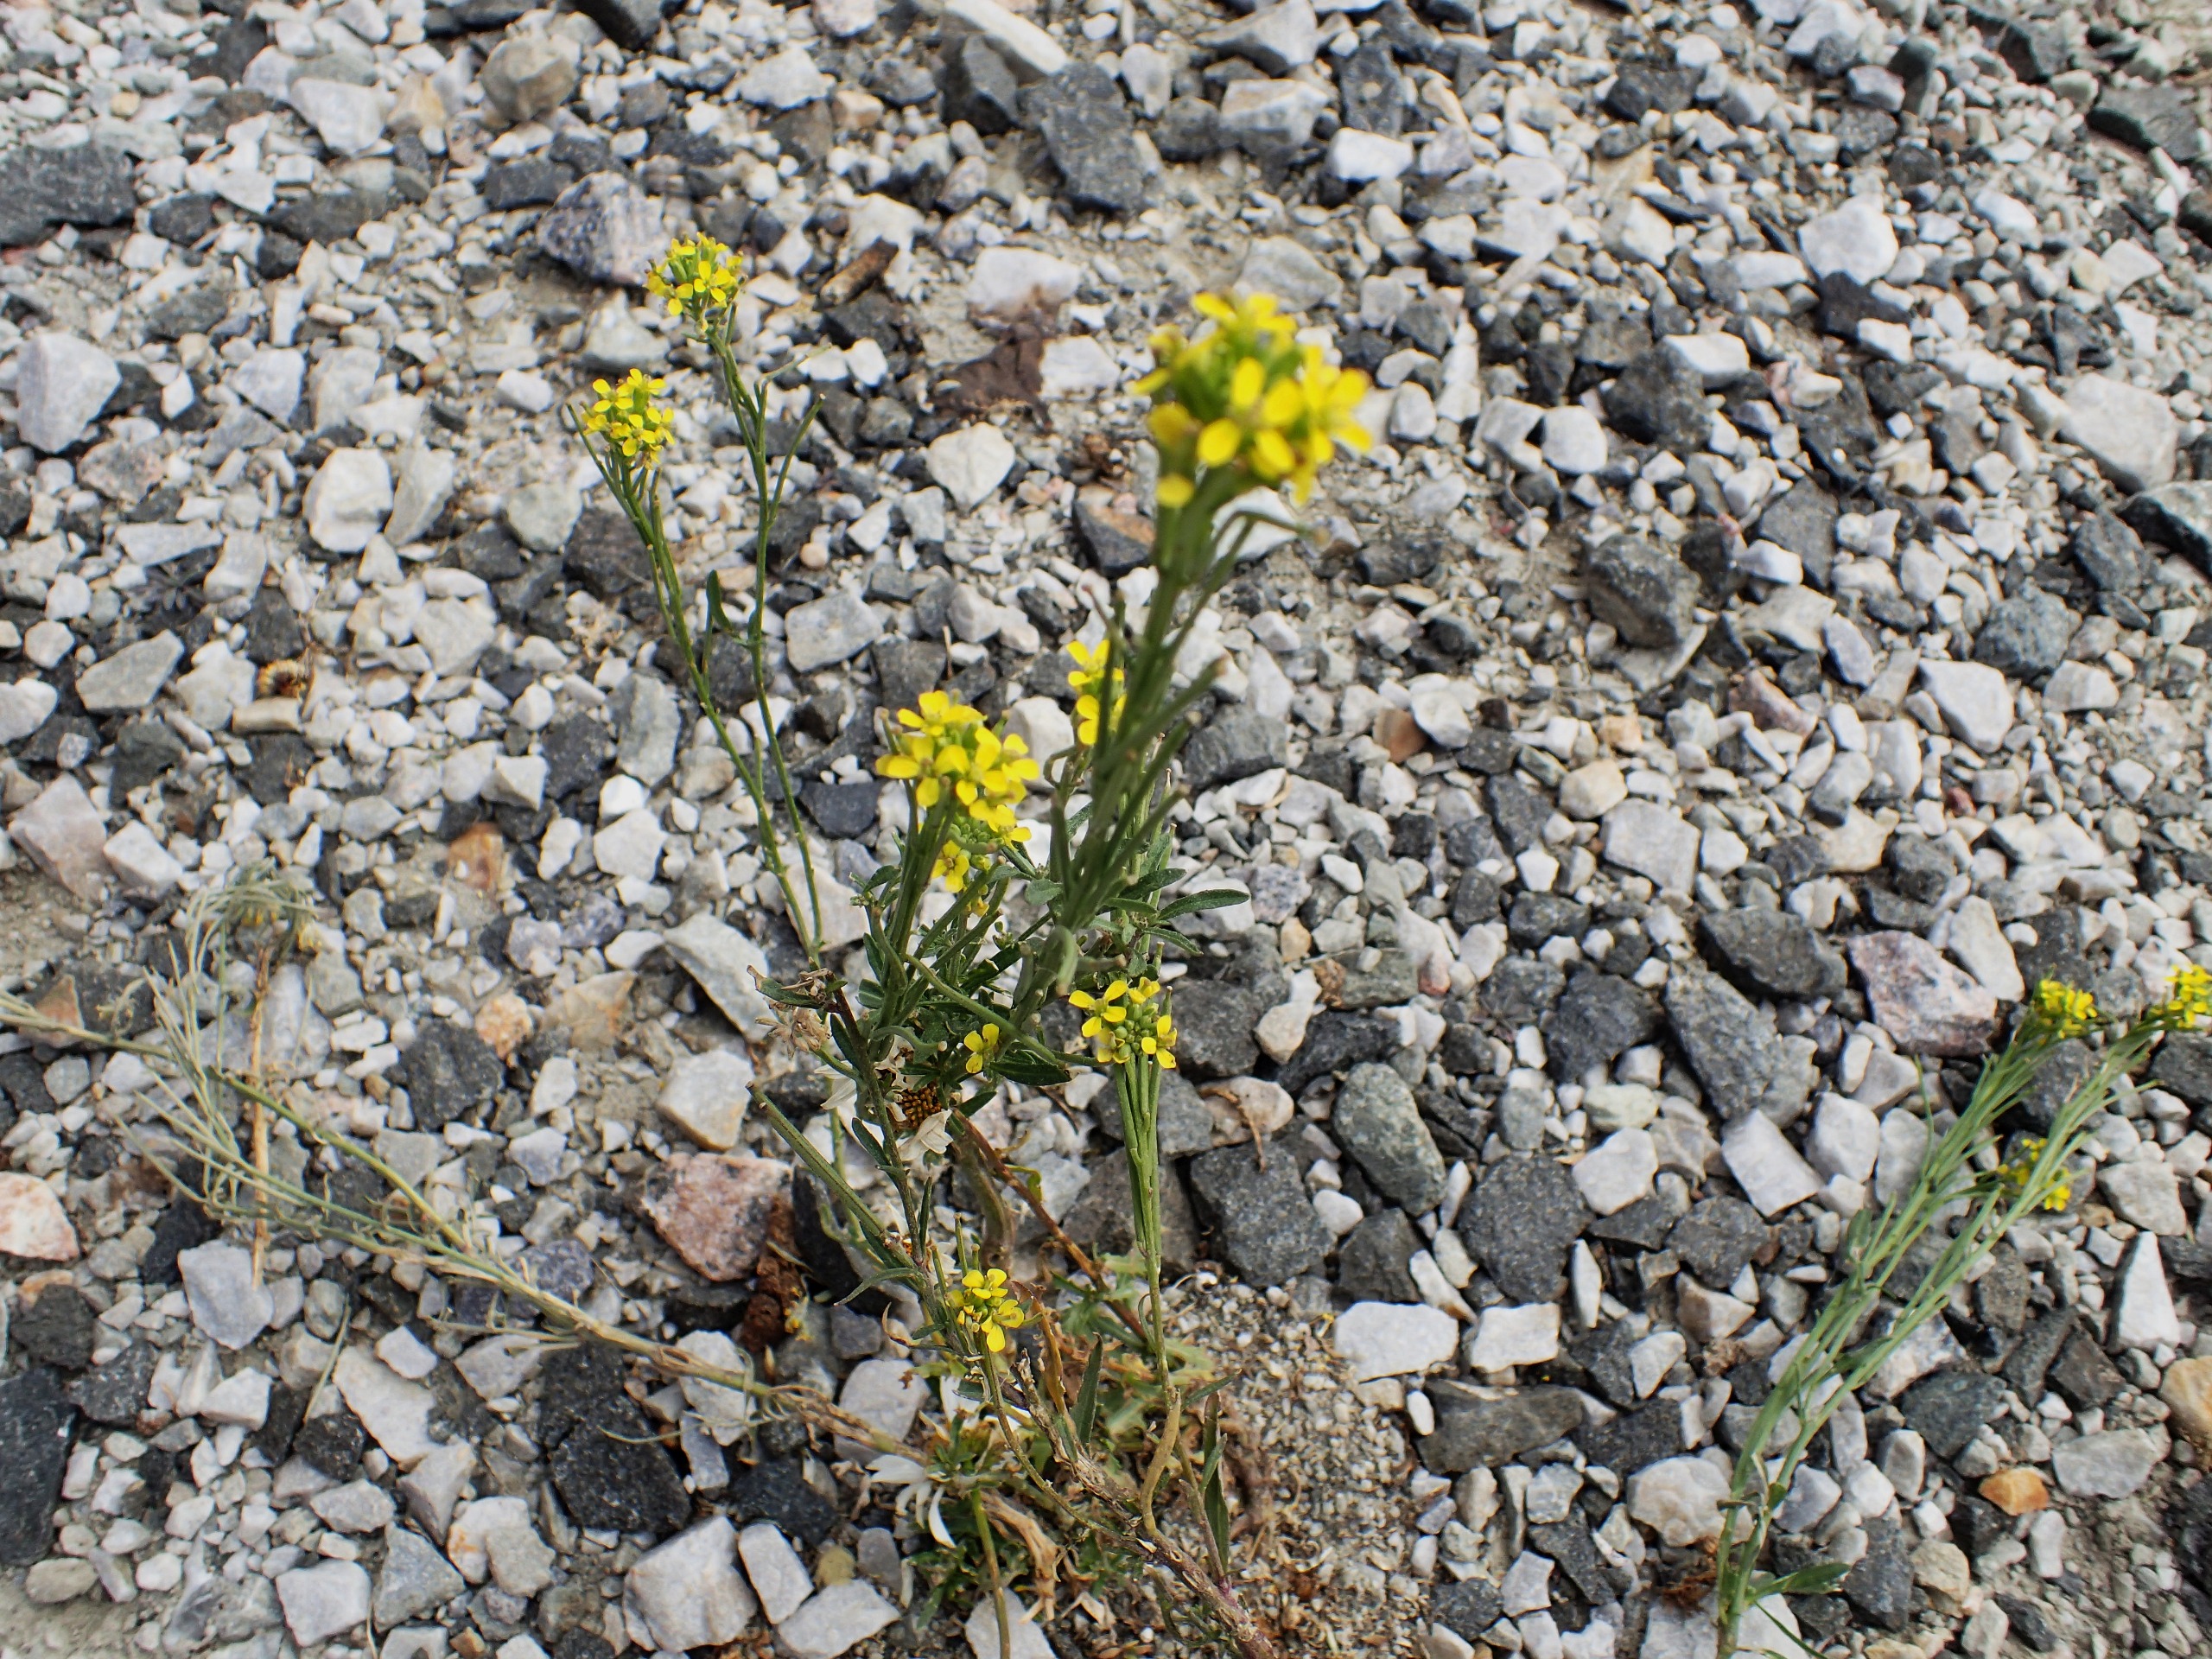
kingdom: Plantae
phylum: Tracheophyta
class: Magnoliopsida
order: Brassicales
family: Brassicaceae
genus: Erysimum
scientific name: Erysimum strictum
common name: Rank hjørneklap
